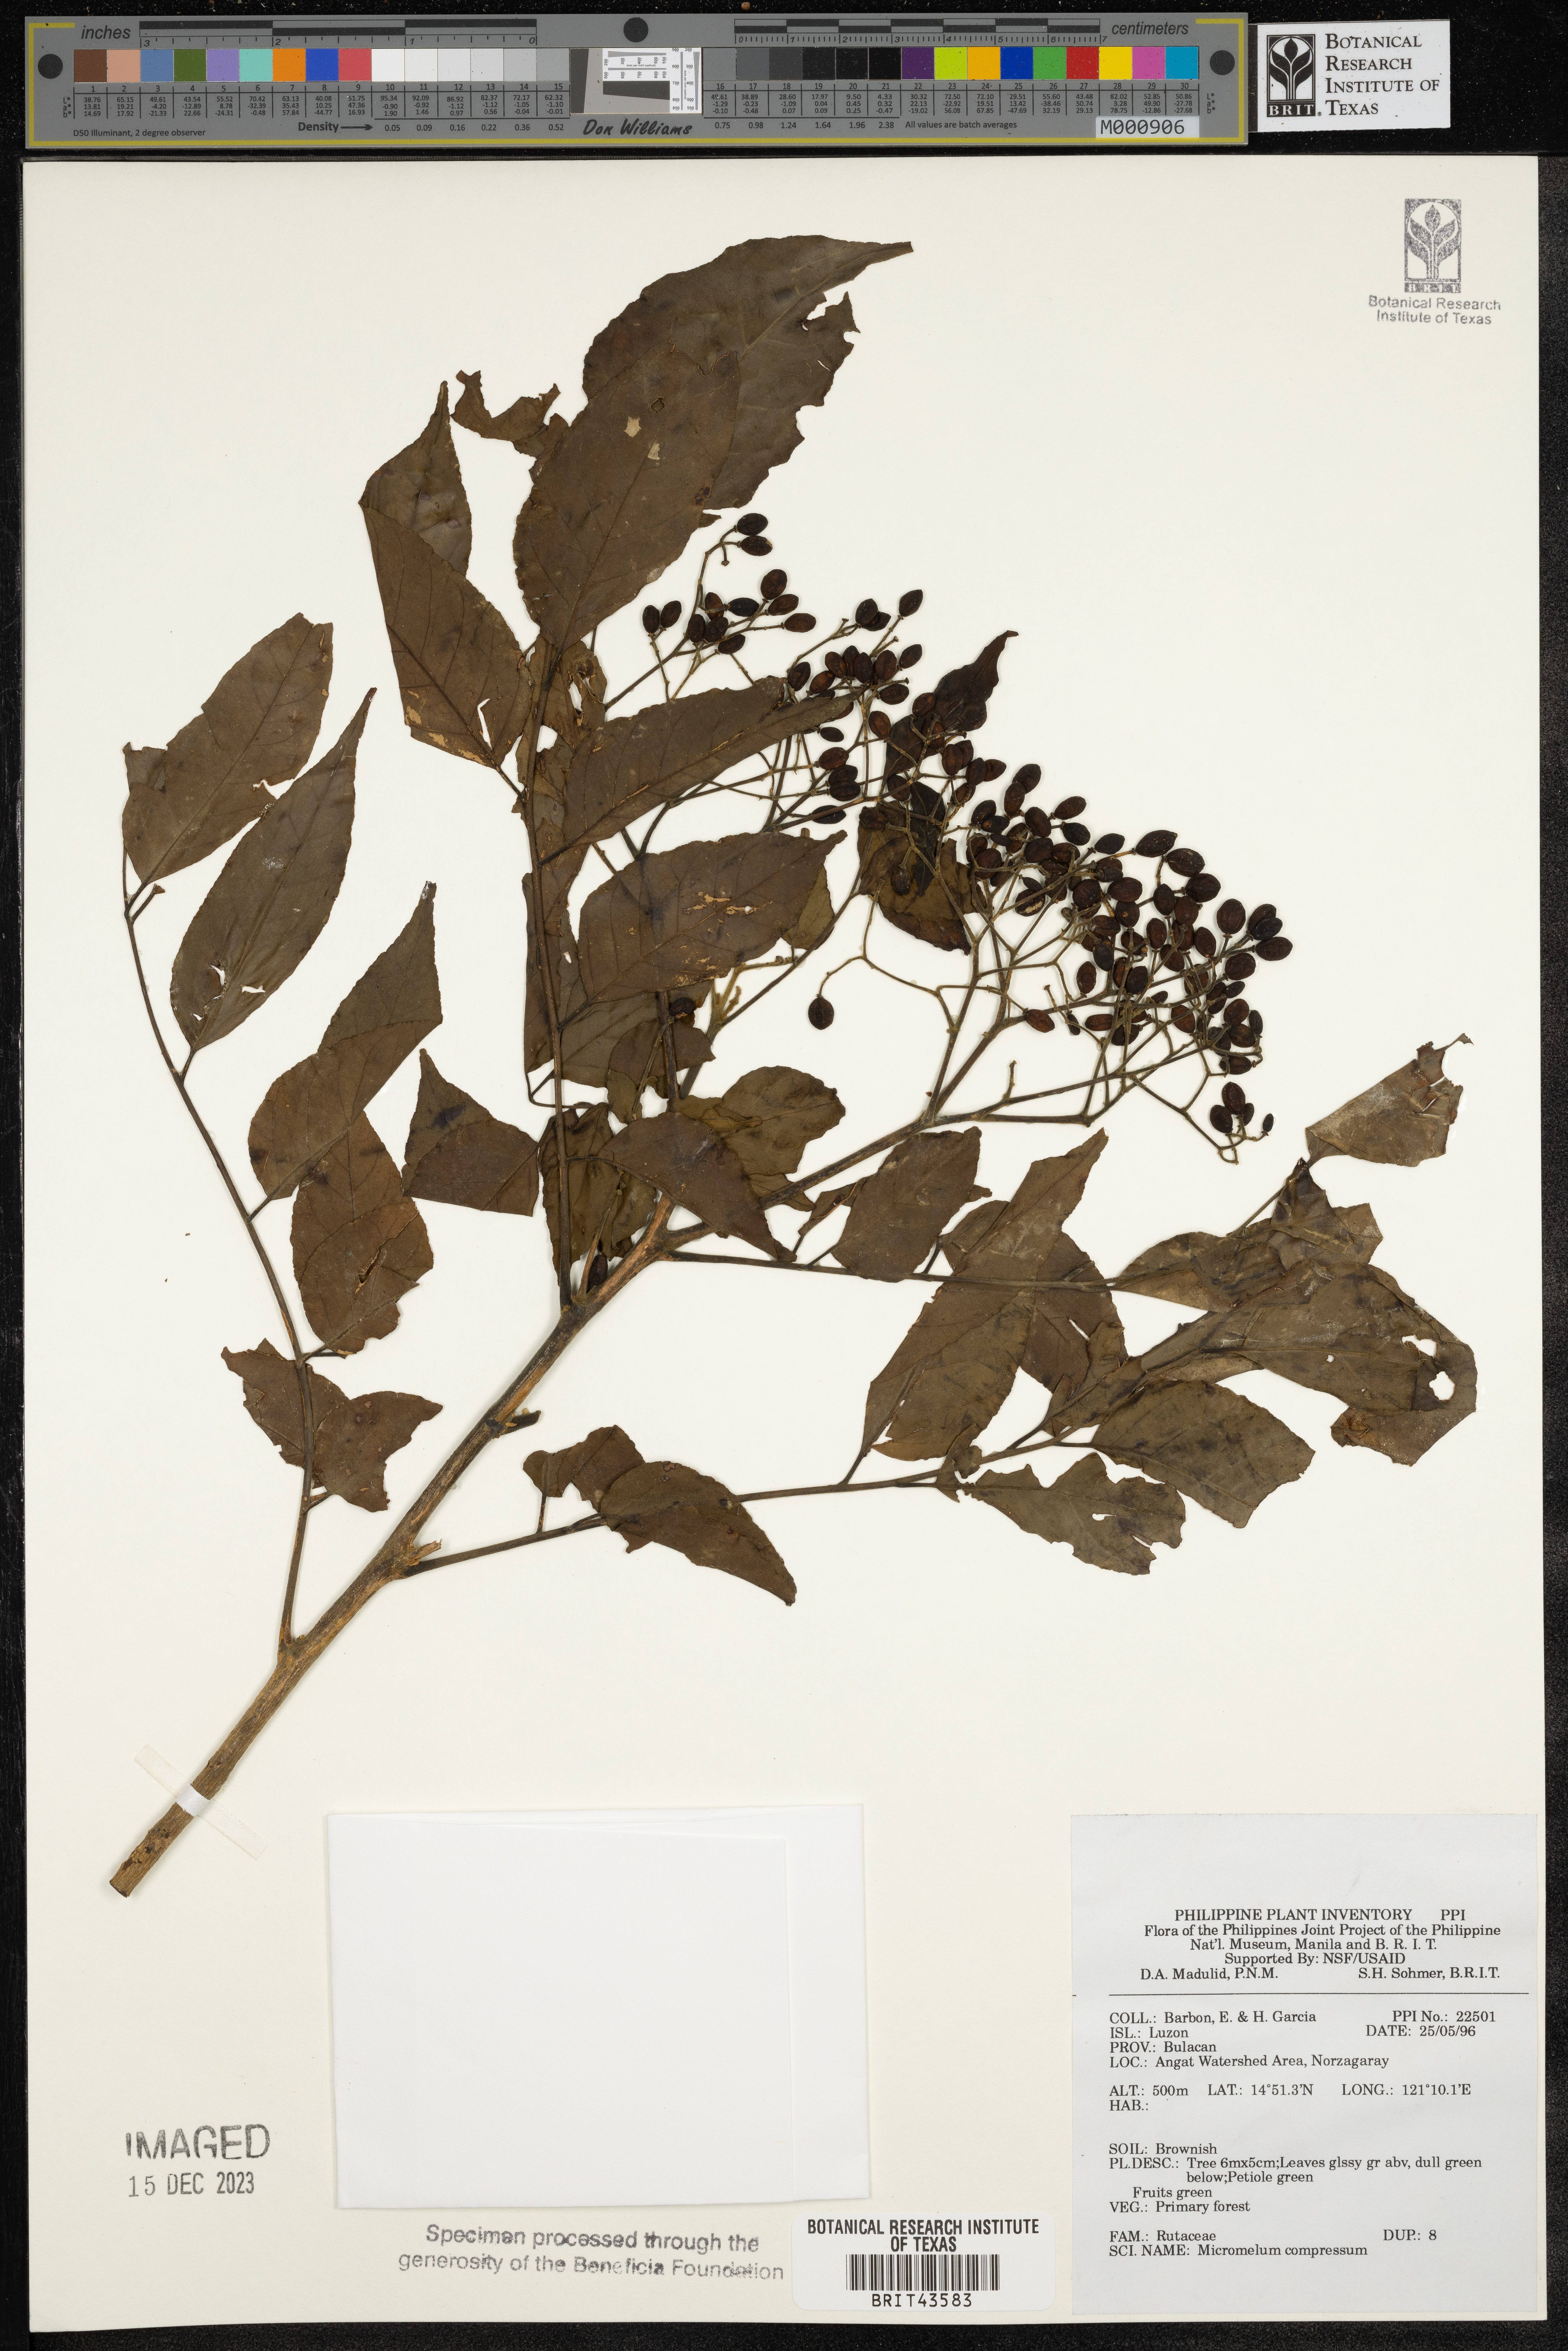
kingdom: Plantae
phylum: Tracheophyta
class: Magnoliopsida
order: Sapindales
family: Rutaceae
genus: Micromelum
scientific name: Micromelum compressum
